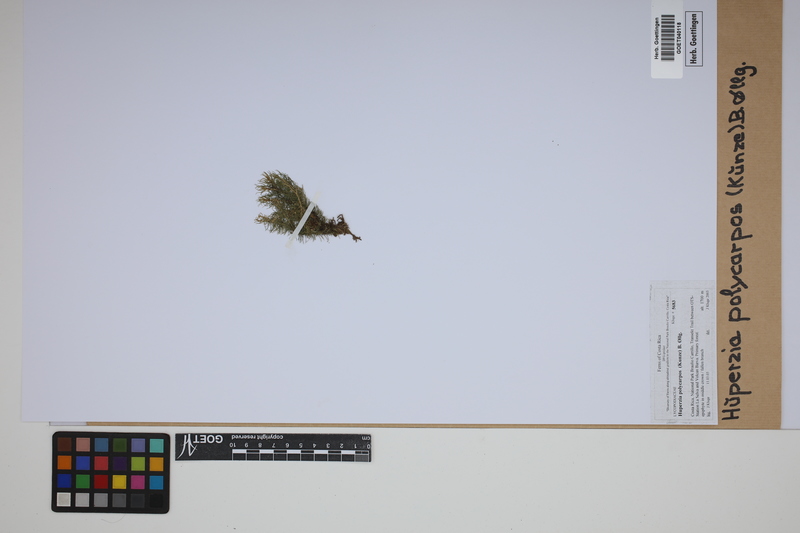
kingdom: Plantae
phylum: Tracheophyta
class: Lycopodiopsida
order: Lycopodiales
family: Lycopodiaceae
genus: Phlegmariurus
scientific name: Phlegmariurus
